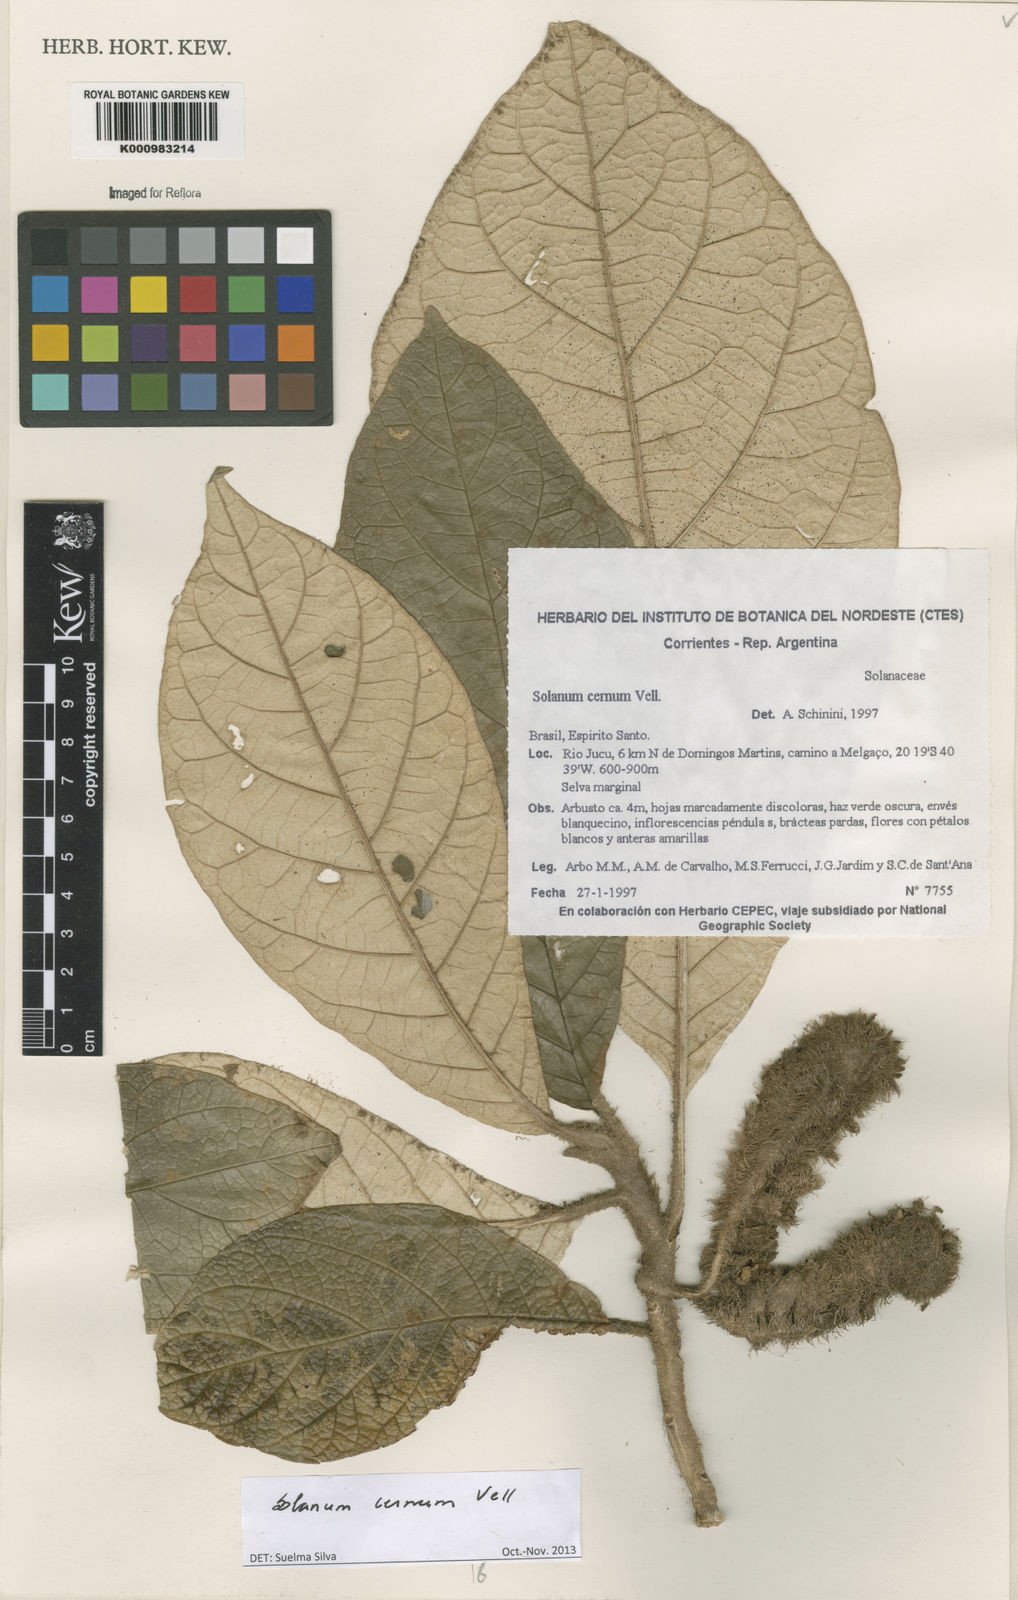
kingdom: Plantae
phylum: Tracheophyta
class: Magnoliopsida
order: Solanales
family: Solanaceae
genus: Solanum
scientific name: Solanum cernuum
